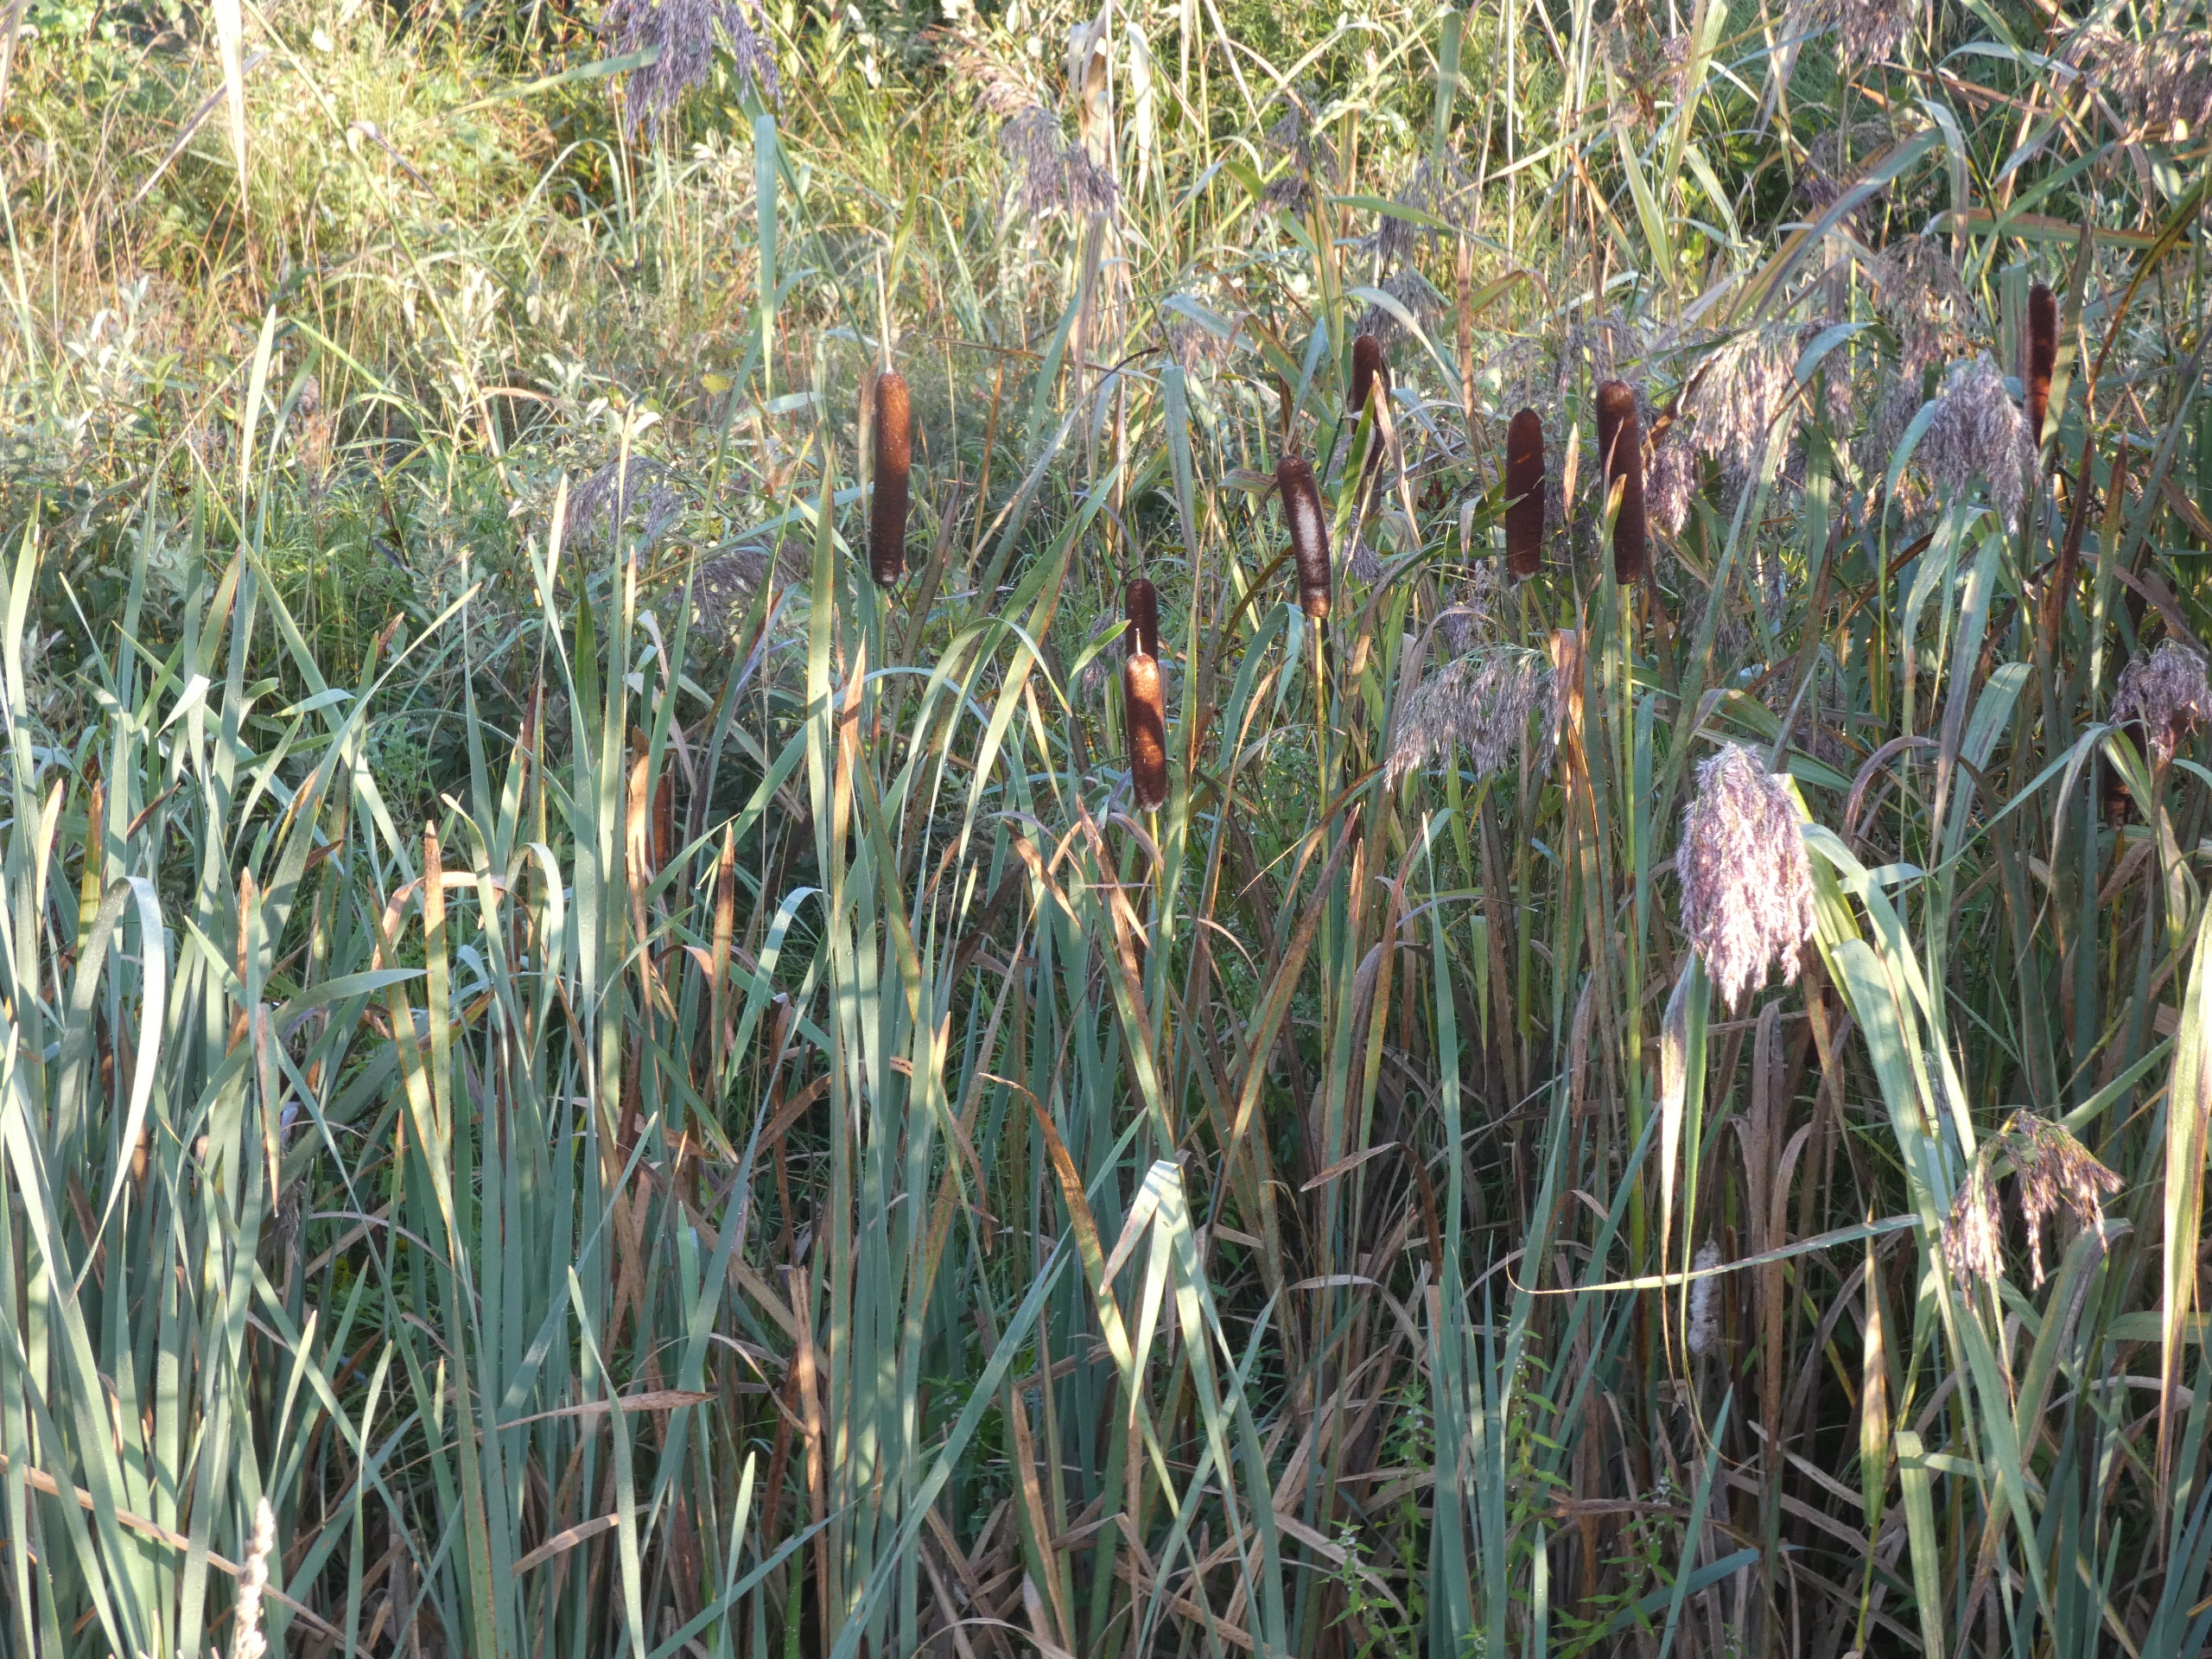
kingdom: Plantae
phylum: Tracheophyta
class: Liliopsida
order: Poales
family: Typhaceae
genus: Typha
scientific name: Typha latifolia
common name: Bredbladet dunhammer
